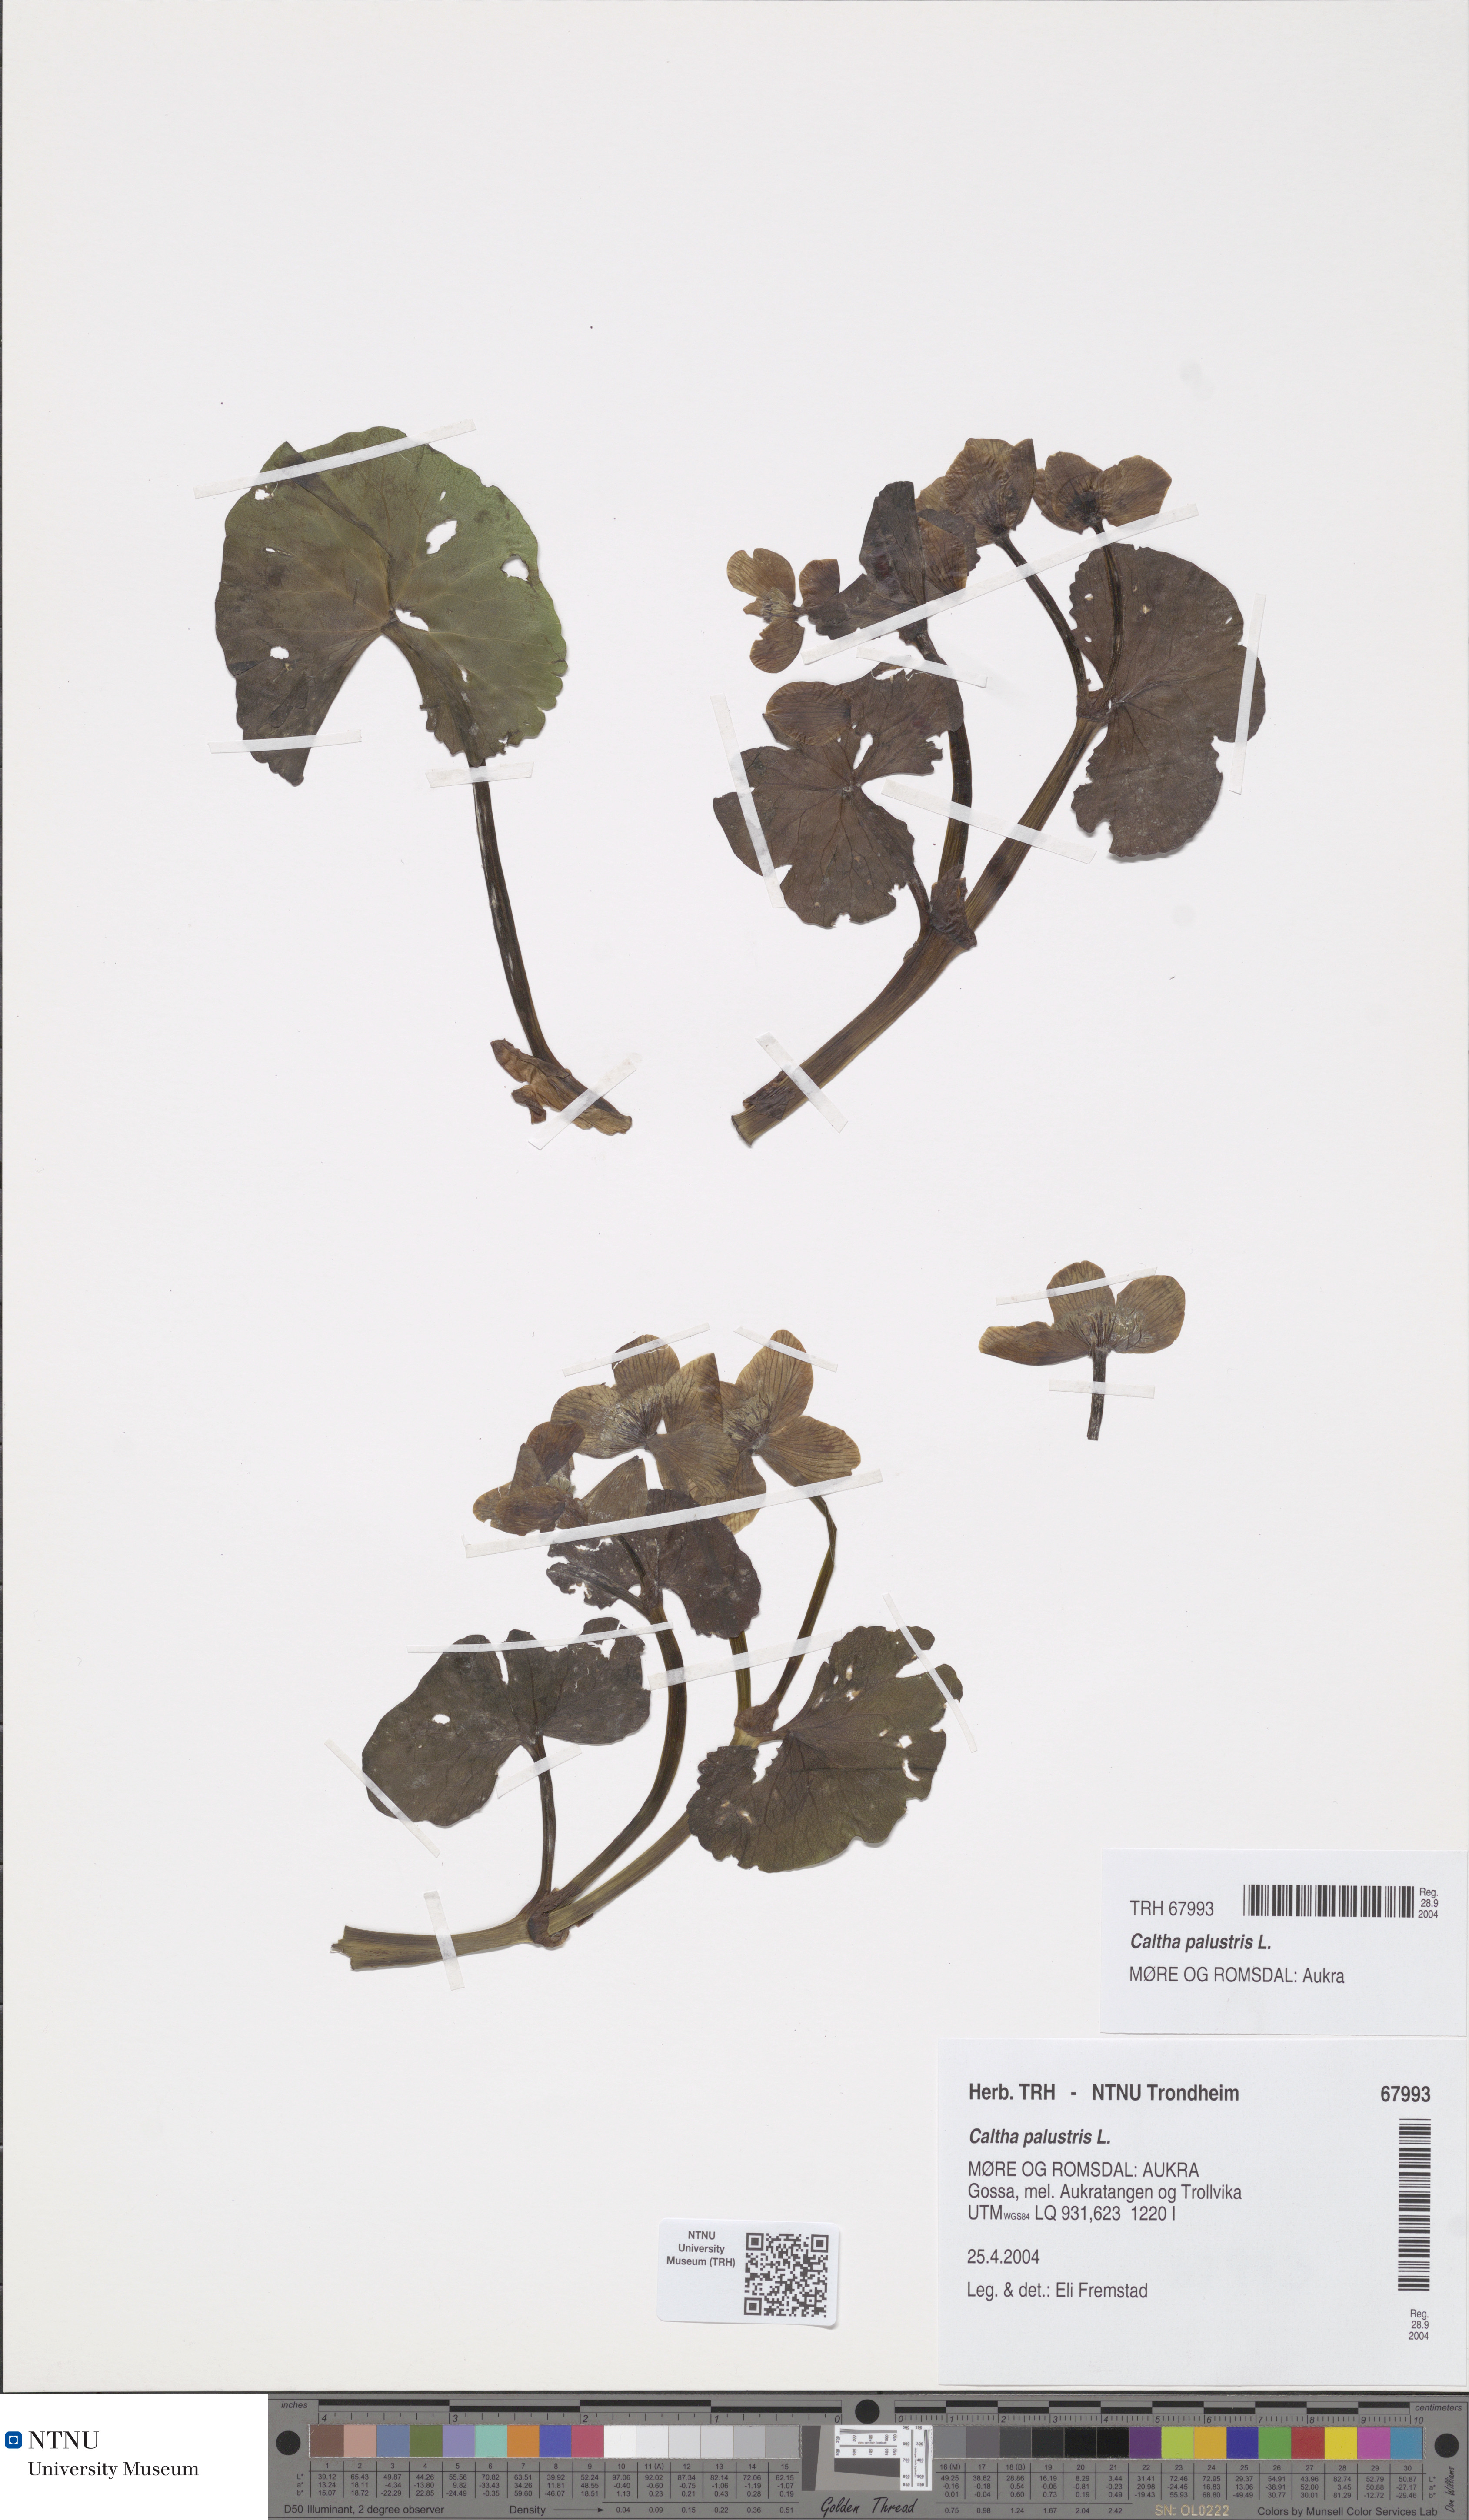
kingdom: Plantae
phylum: Tracheophyta
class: Magnoliopsida
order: Ranunculales
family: Ranunculaceae
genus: Caltha
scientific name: Caltha palustris
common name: Marsh marigold
